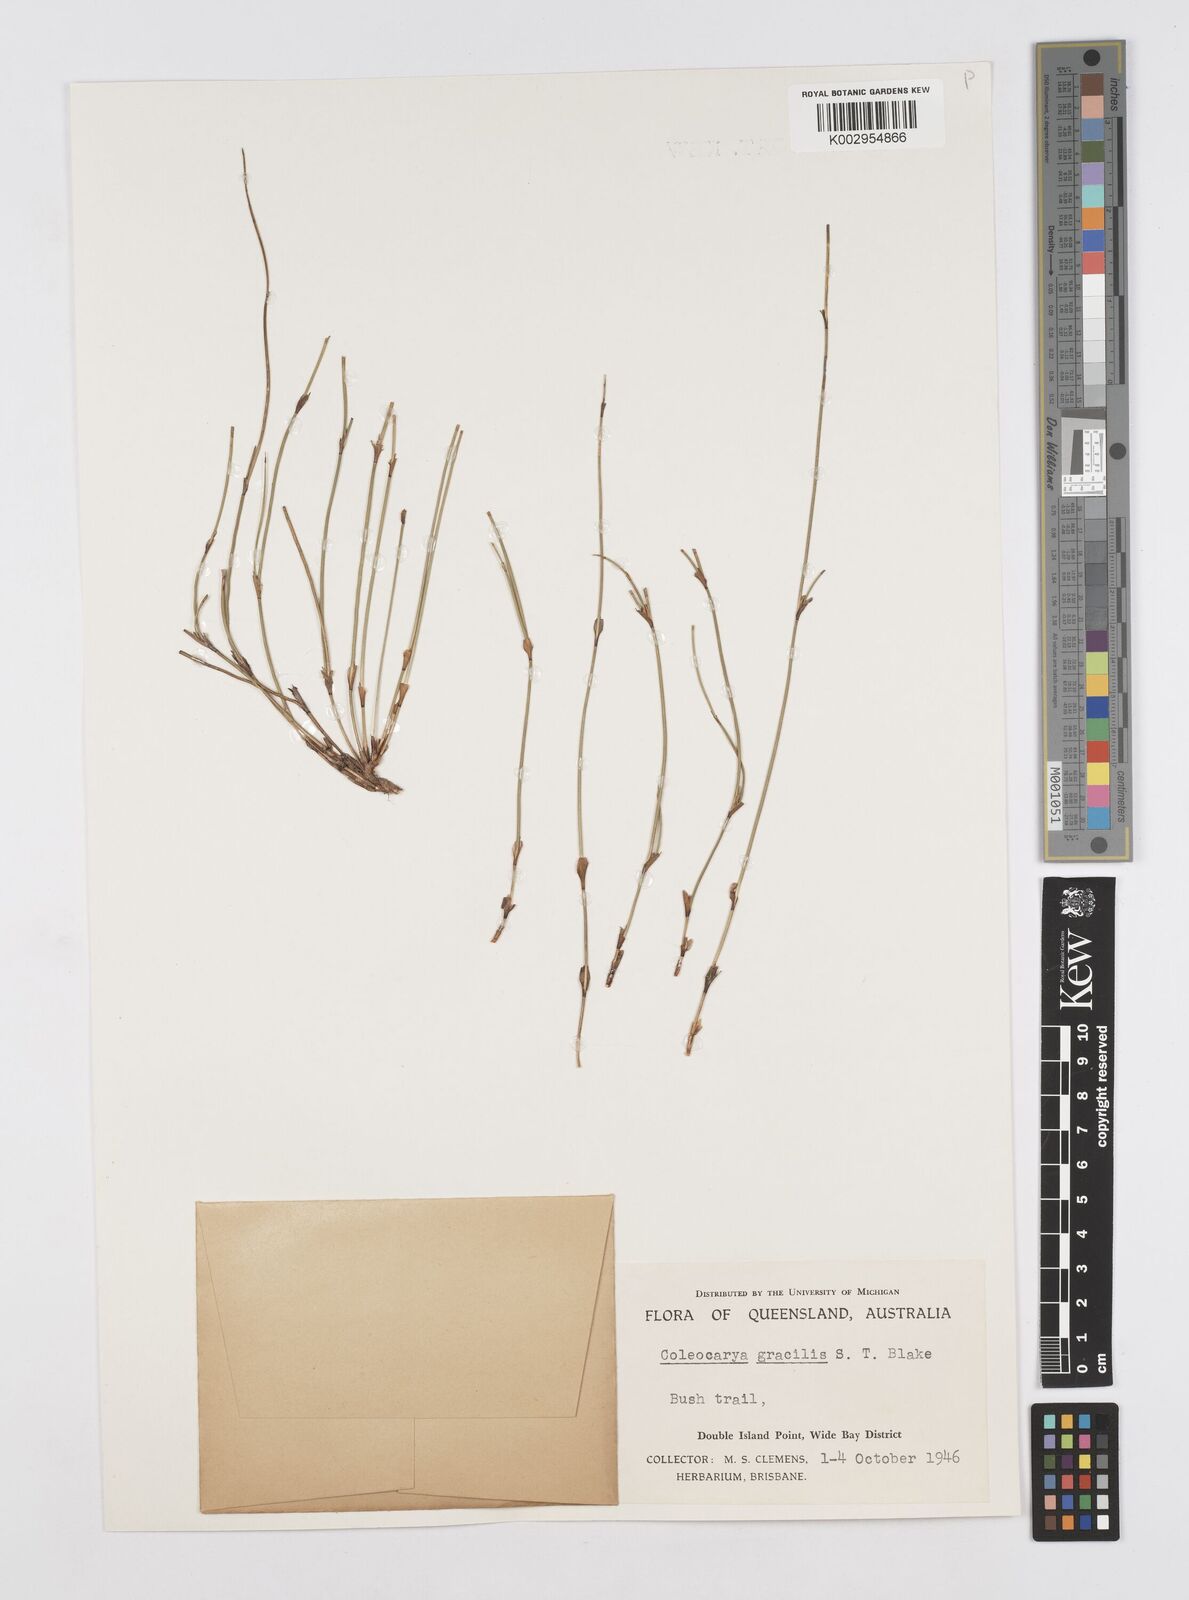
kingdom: Plantae
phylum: Tracheophyta
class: Liliopsida
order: Poales
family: Restionaceae
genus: Coleocarya
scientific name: Coleocarya gracilis
